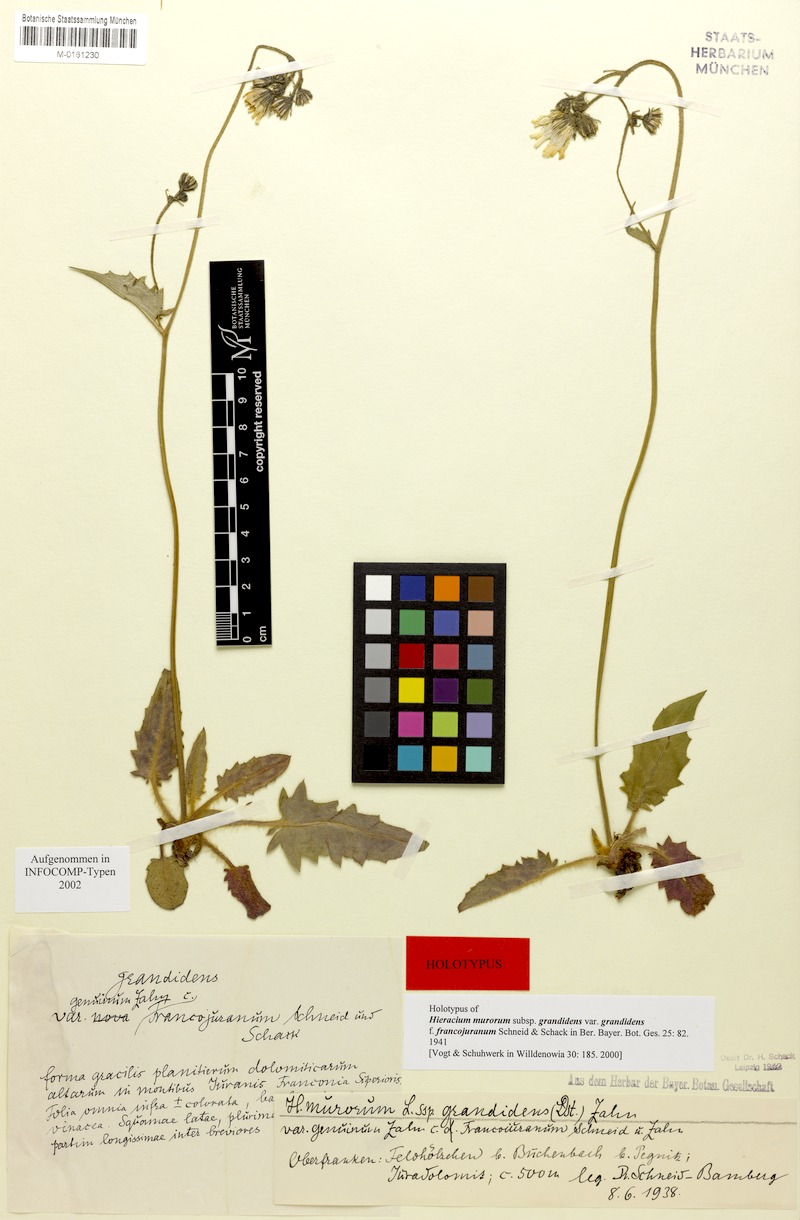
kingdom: Plantae
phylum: Tracheophyta
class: Magnoliopsida
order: Asterales
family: Asteraceae
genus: Hieracium
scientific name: Hieracium murorum
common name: Wall hawkweed
